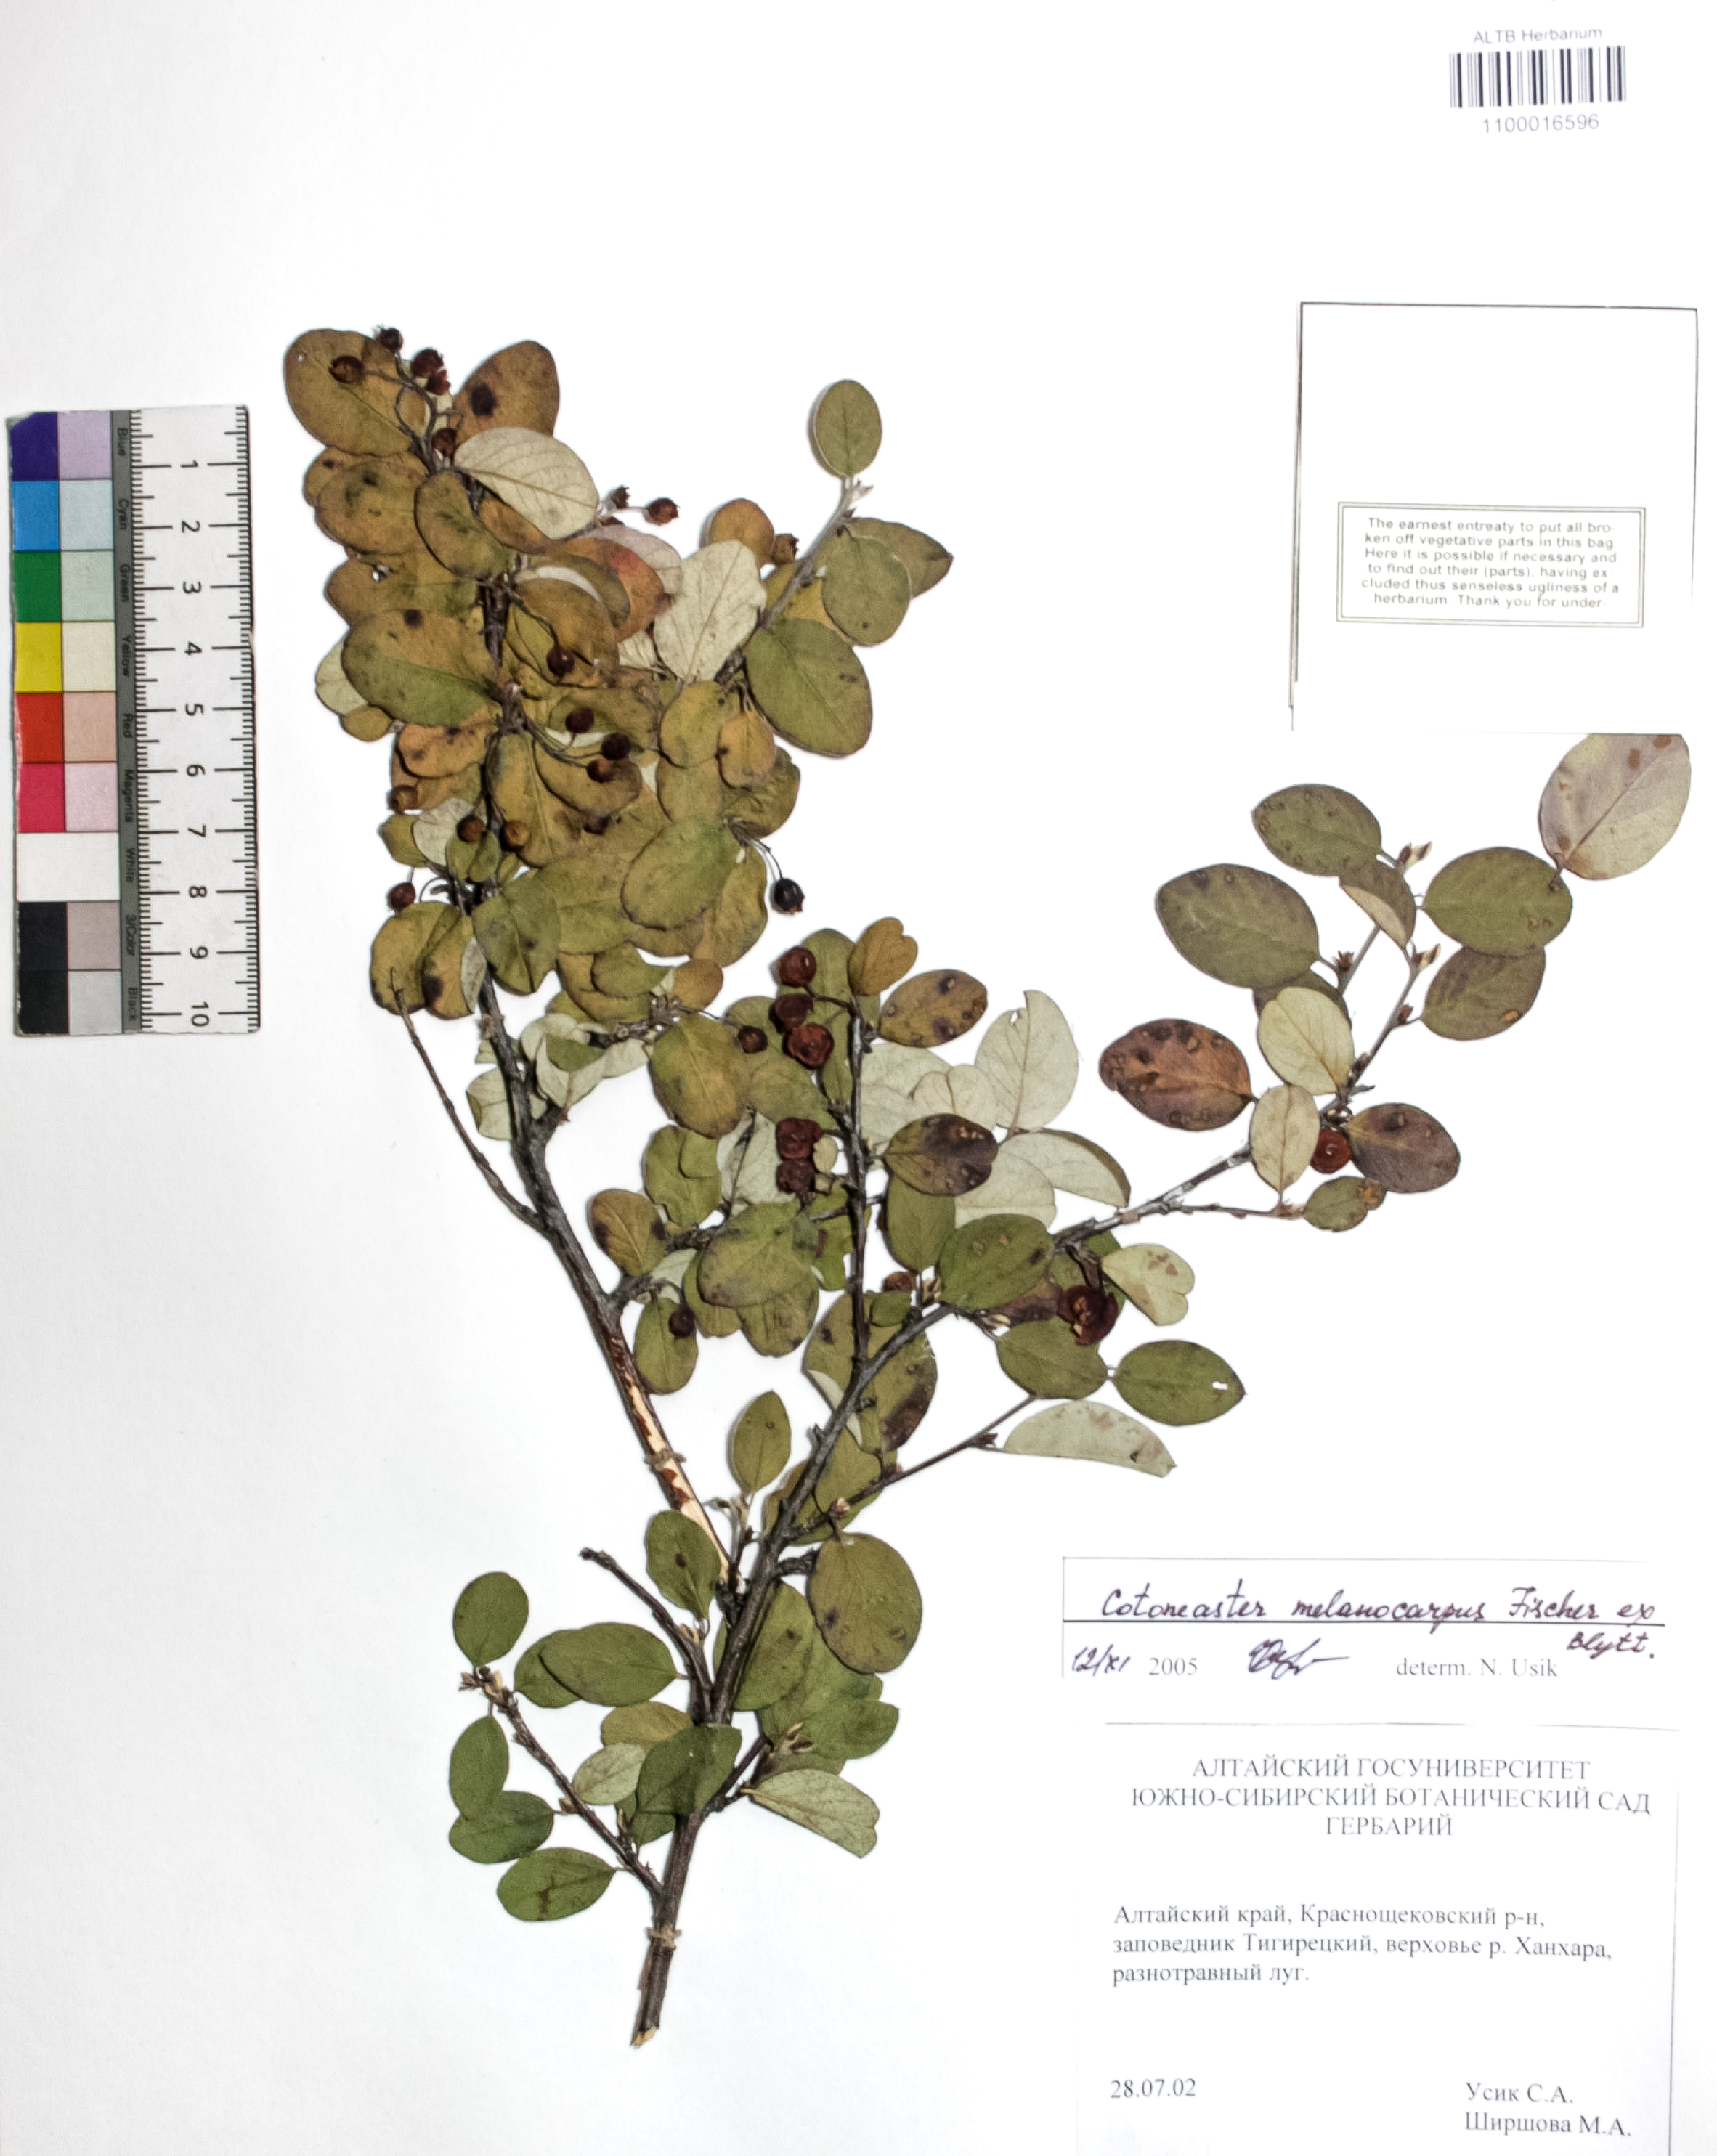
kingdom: Plantae
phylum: Tracheophyta
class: Magnoliopsida
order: Rosales
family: Rosaceae
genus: Cotoneaster
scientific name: Cotoneaster niger
